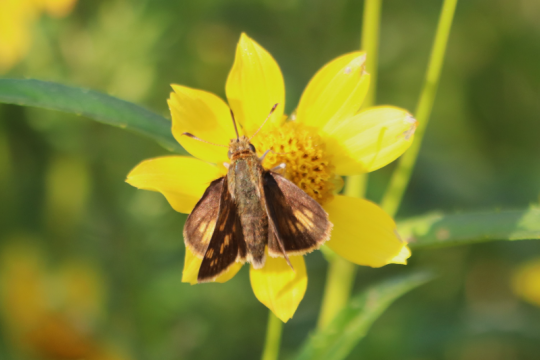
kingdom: Animalia
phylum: Arthropoda
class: Insecta
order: Lepidoptera
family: Hesperiidae
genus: Polites
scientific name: Polites coras
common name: Peck's Skipper
